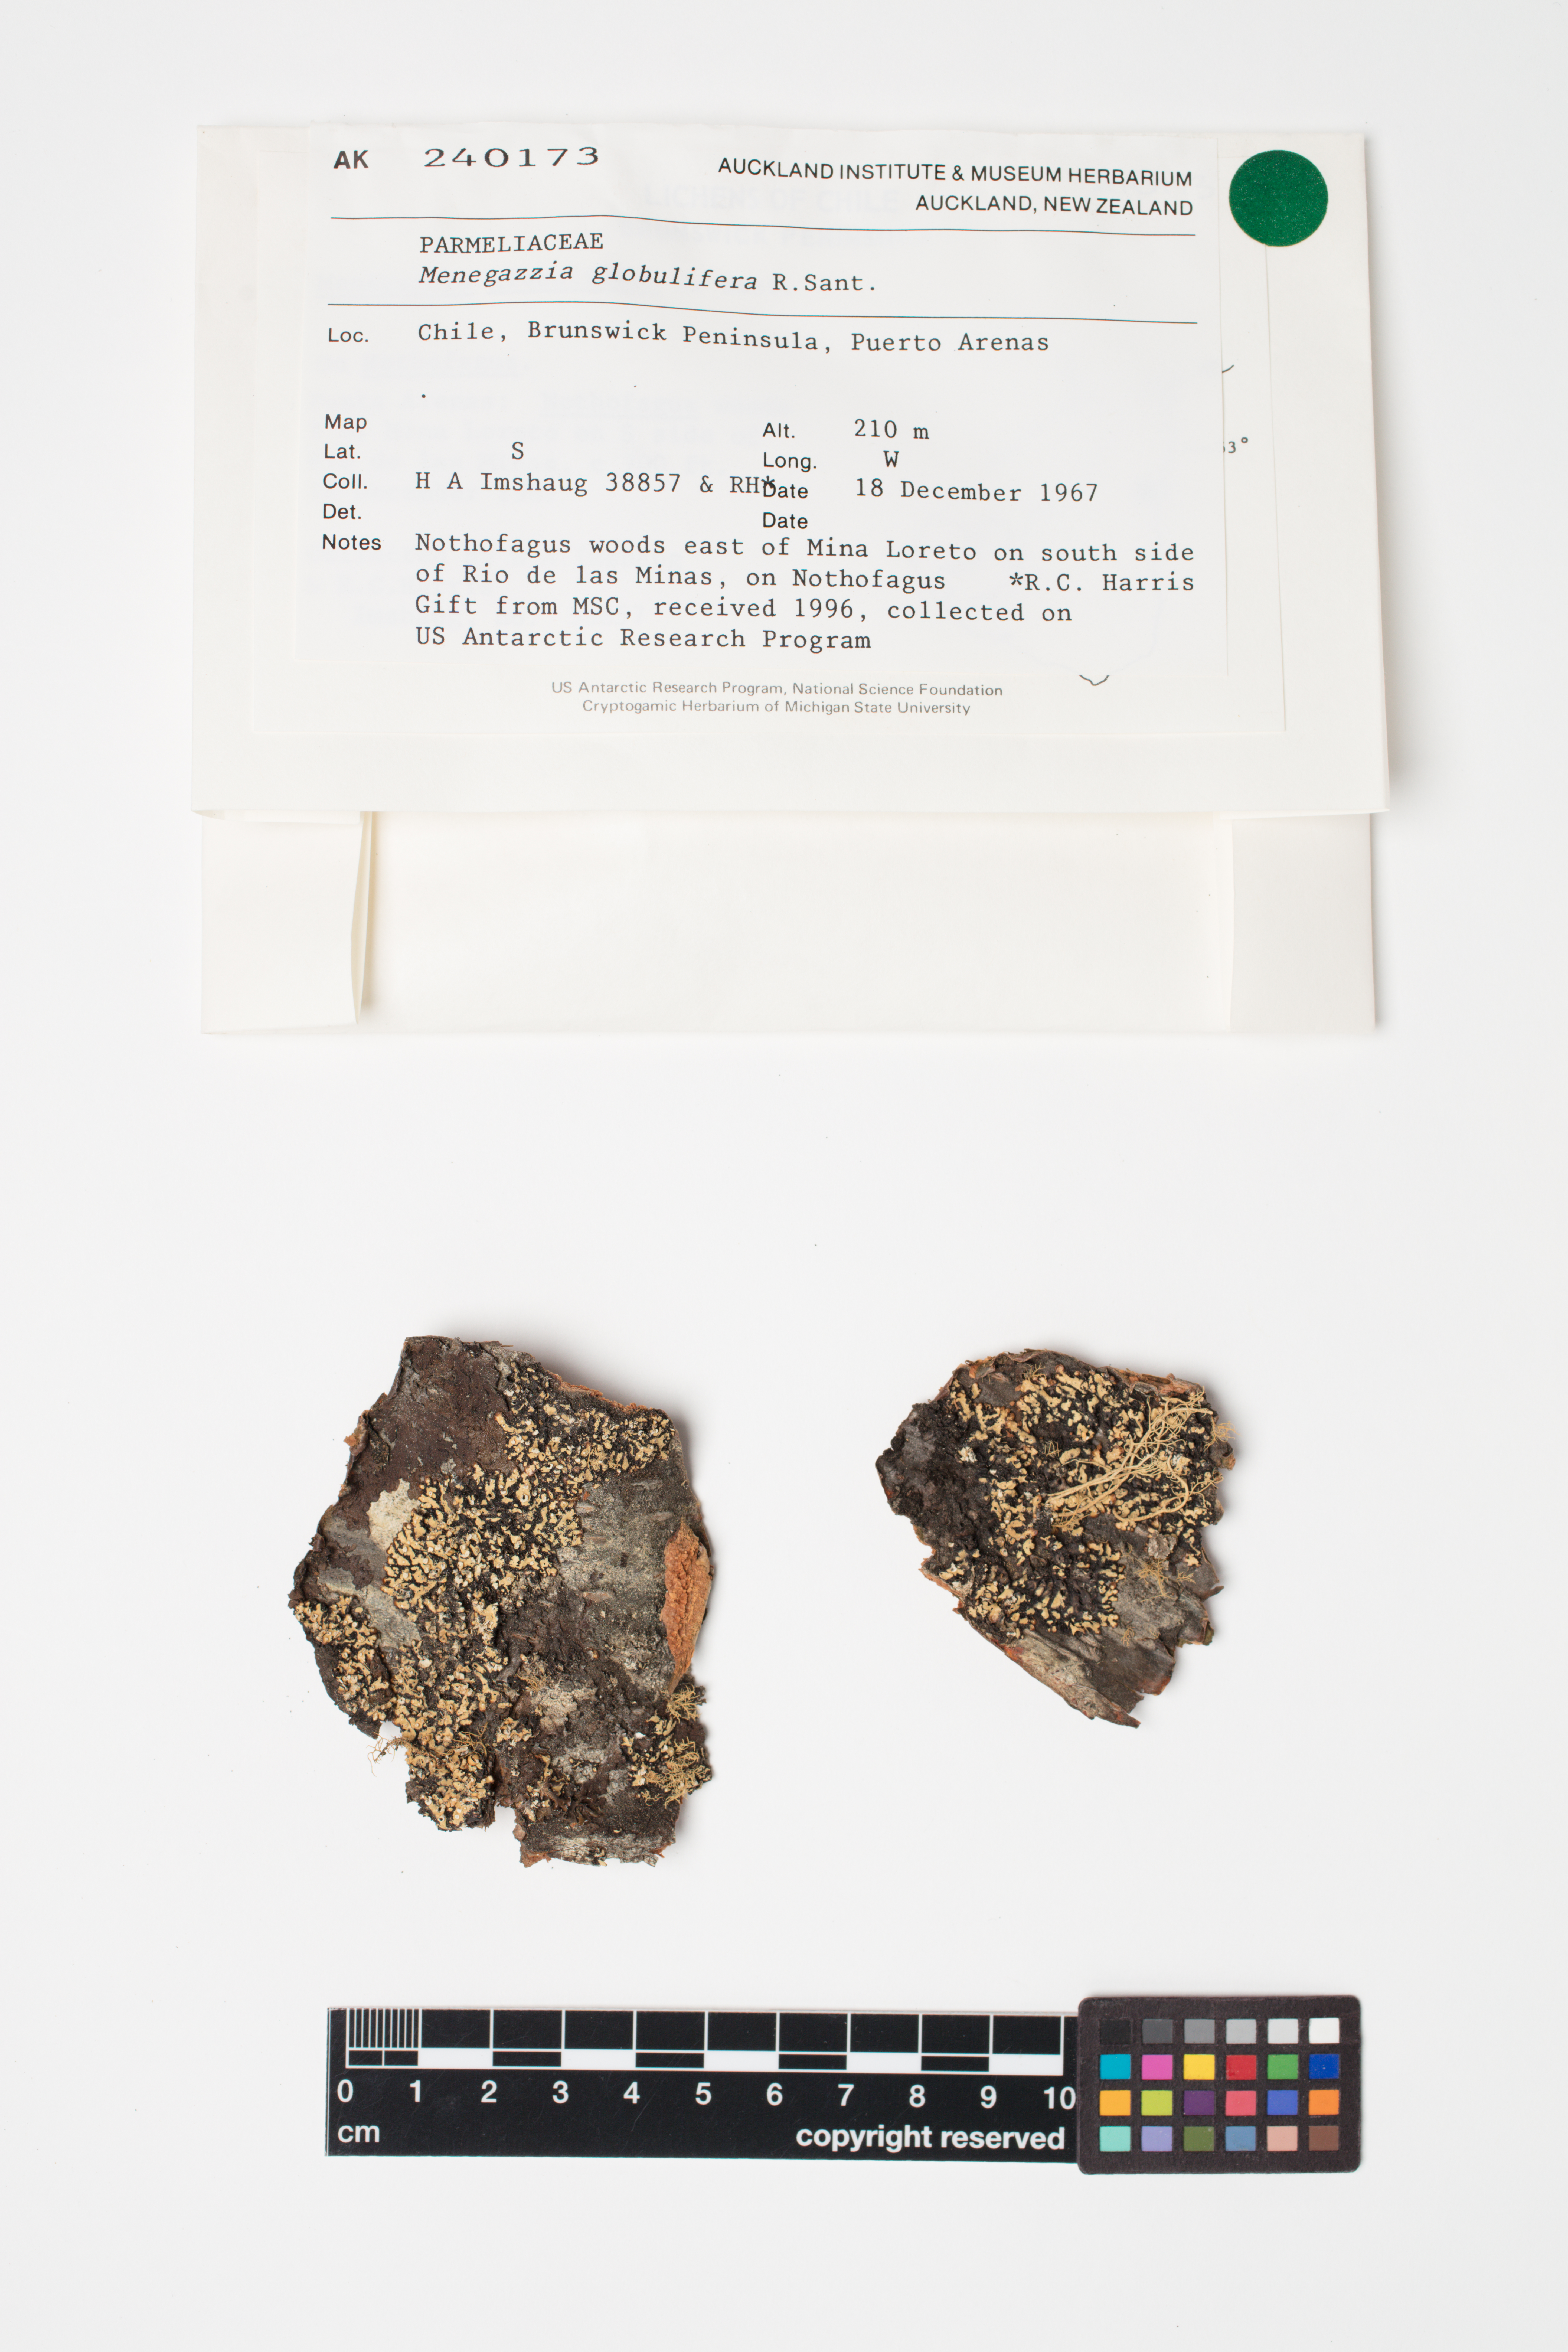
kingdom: Fungi
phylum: Ascomycota
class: Lecanoromycetes
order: Lecanorales
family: Parmeliaceae
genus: Menegazzia
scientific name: Menegazzia globulifera
